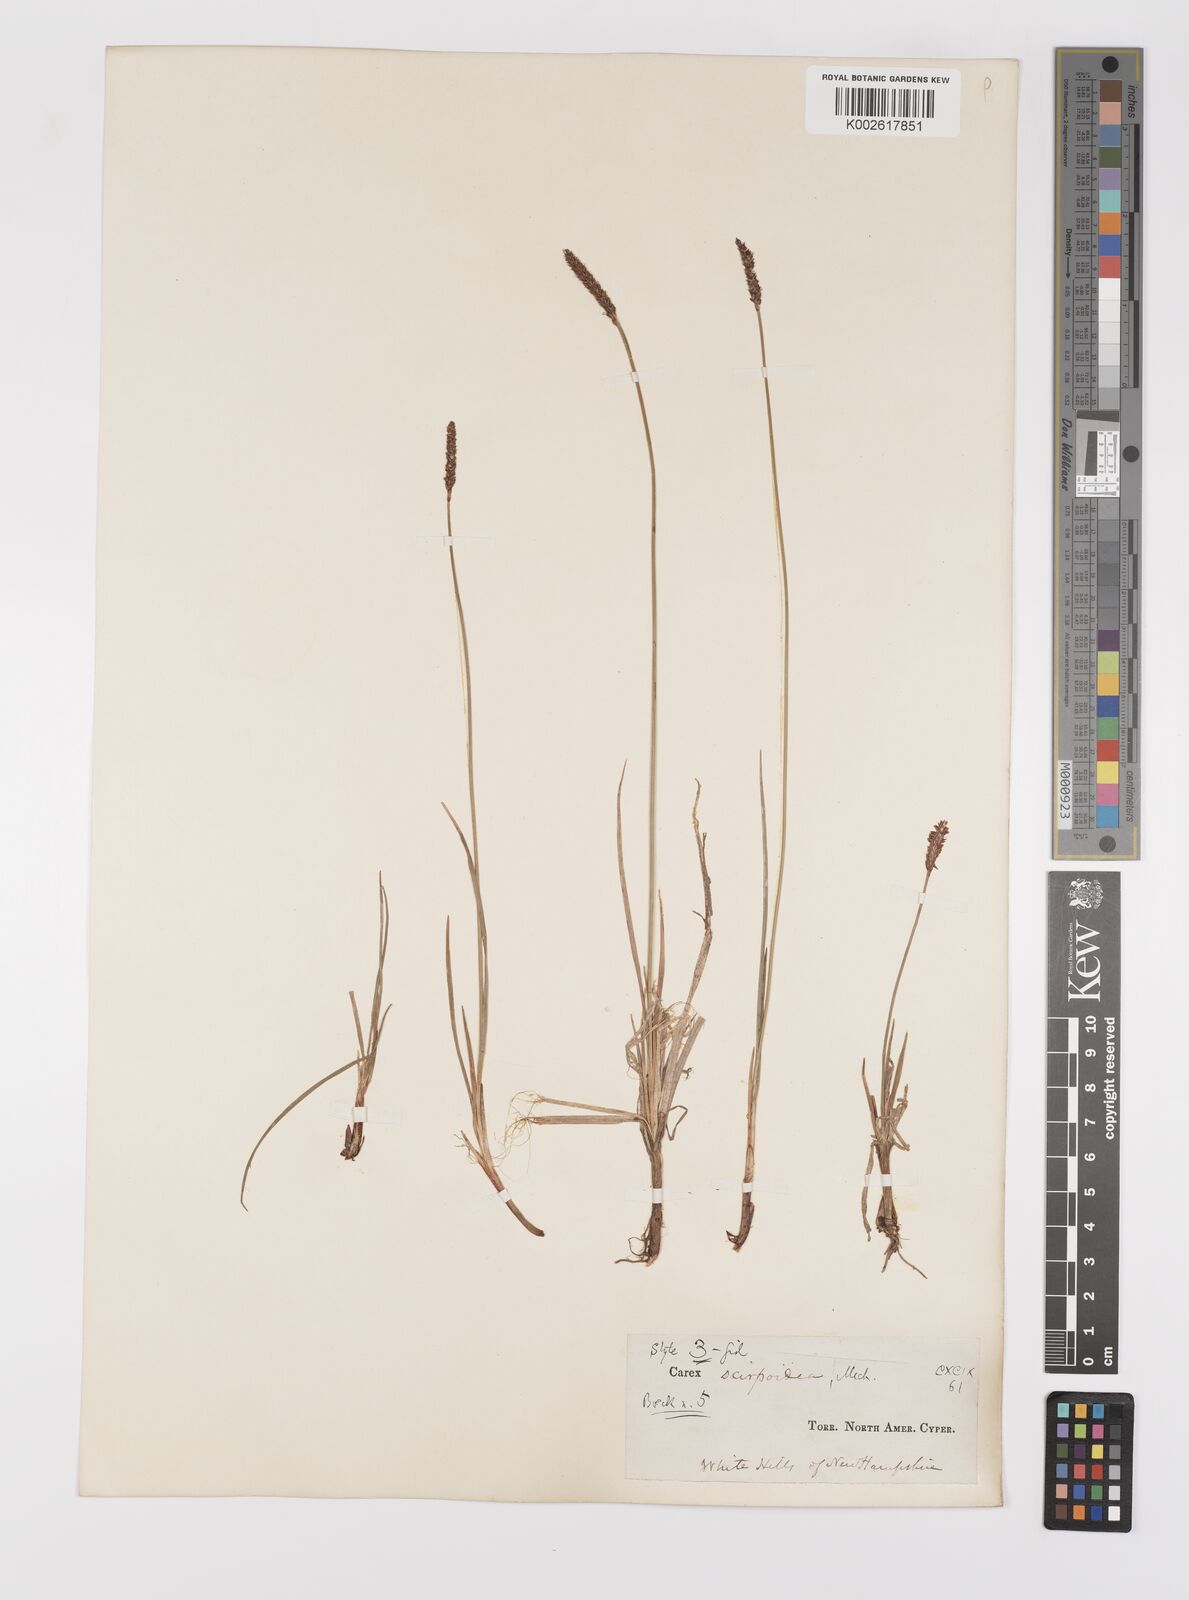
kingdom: Plantae
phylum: Tracheophyta
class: Liliopsida
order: Poales
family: Cyperaceae
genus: Carex
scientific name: Carex scirpoidea
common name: Canada single-spike sedge
